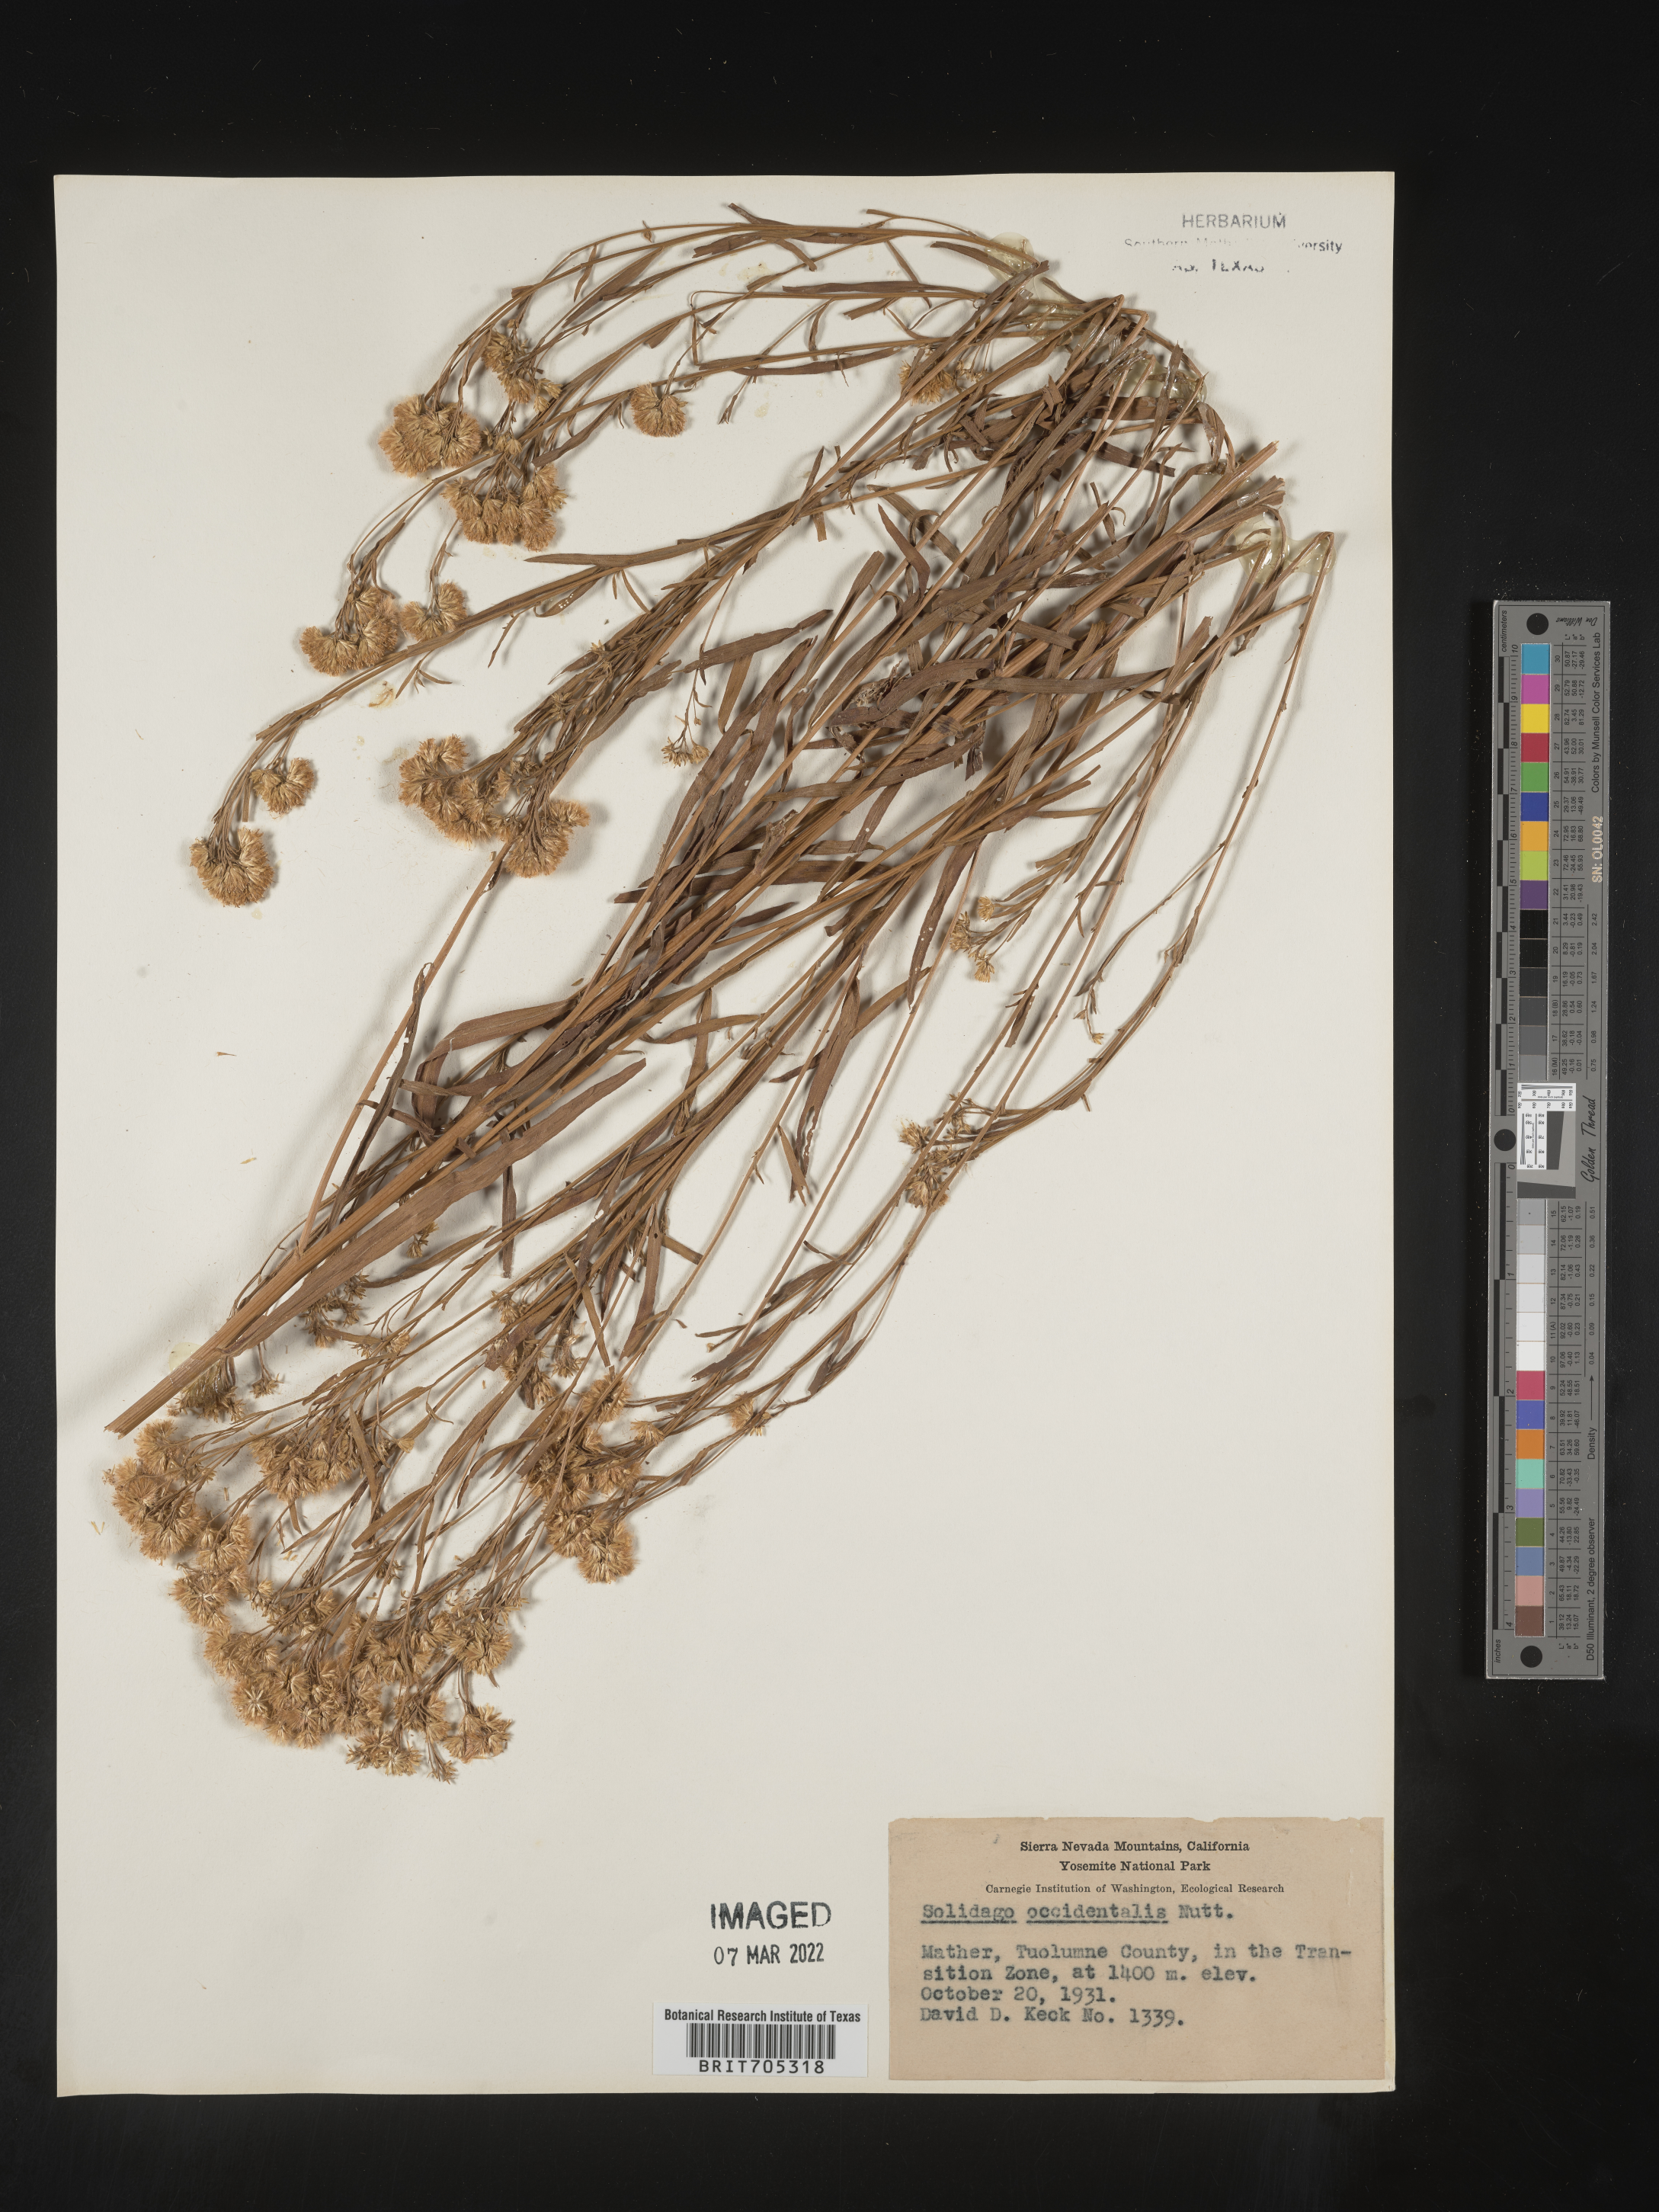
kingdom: Plantae
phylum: Tracheophyta
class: Magnoliopsida
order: Asterales
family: Asteraceae
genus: Euthamia
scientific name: Euthamia occidentalis
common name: Western goldentop
